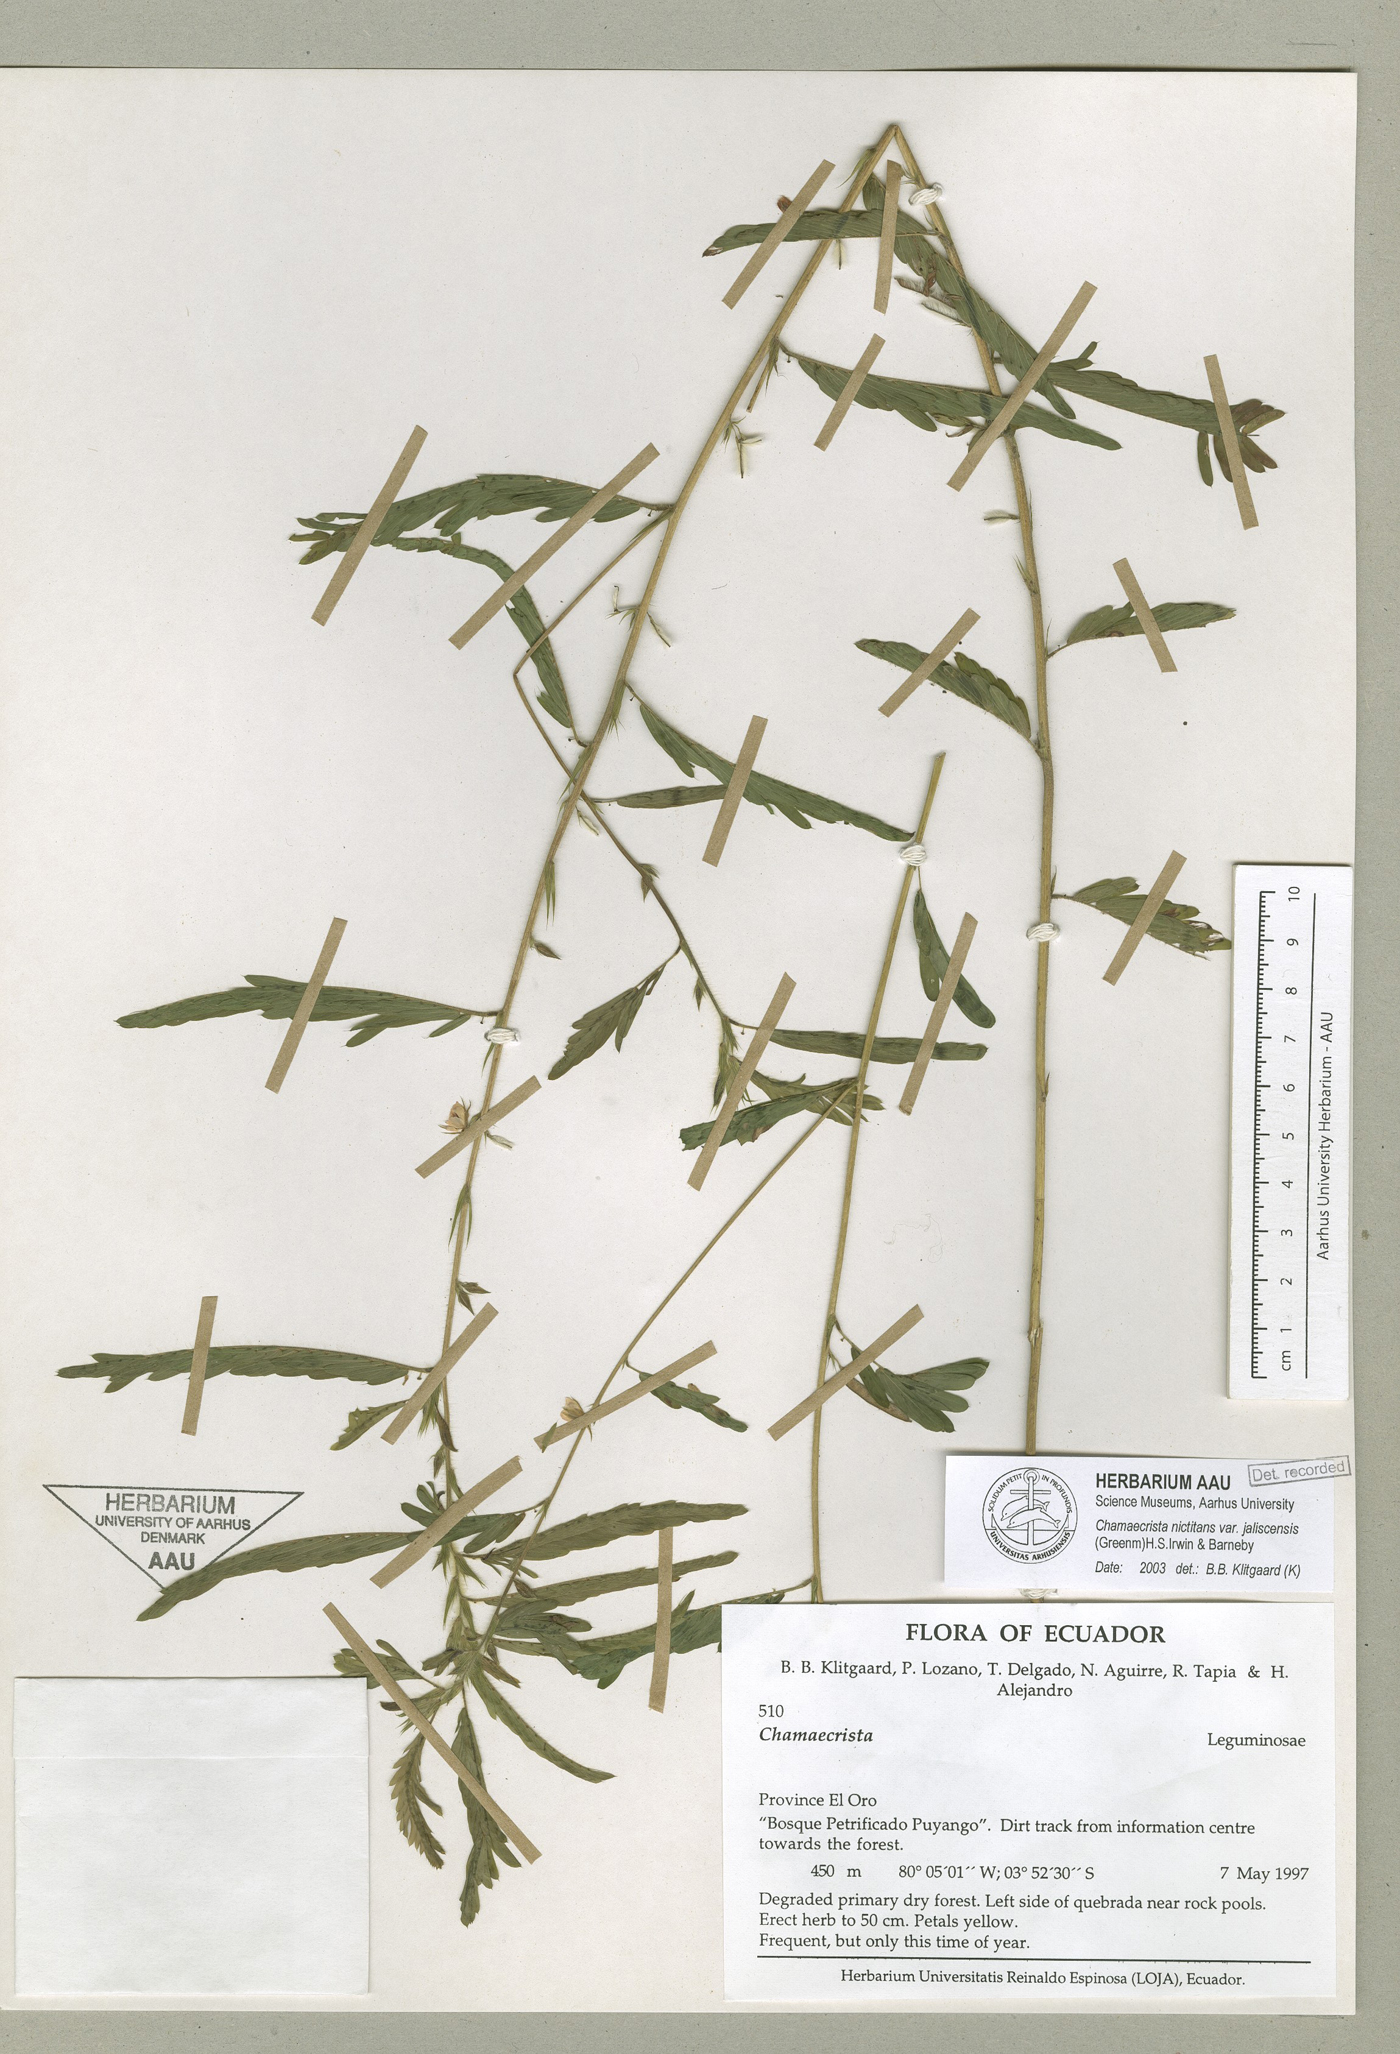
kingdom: Plantae
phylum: Tracheophyta
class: Magnoliopsida
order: Fabales
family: Fabaceae
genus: Chamaecrista
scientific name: Chamaecrista nictitans
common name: Sensitive cassia
